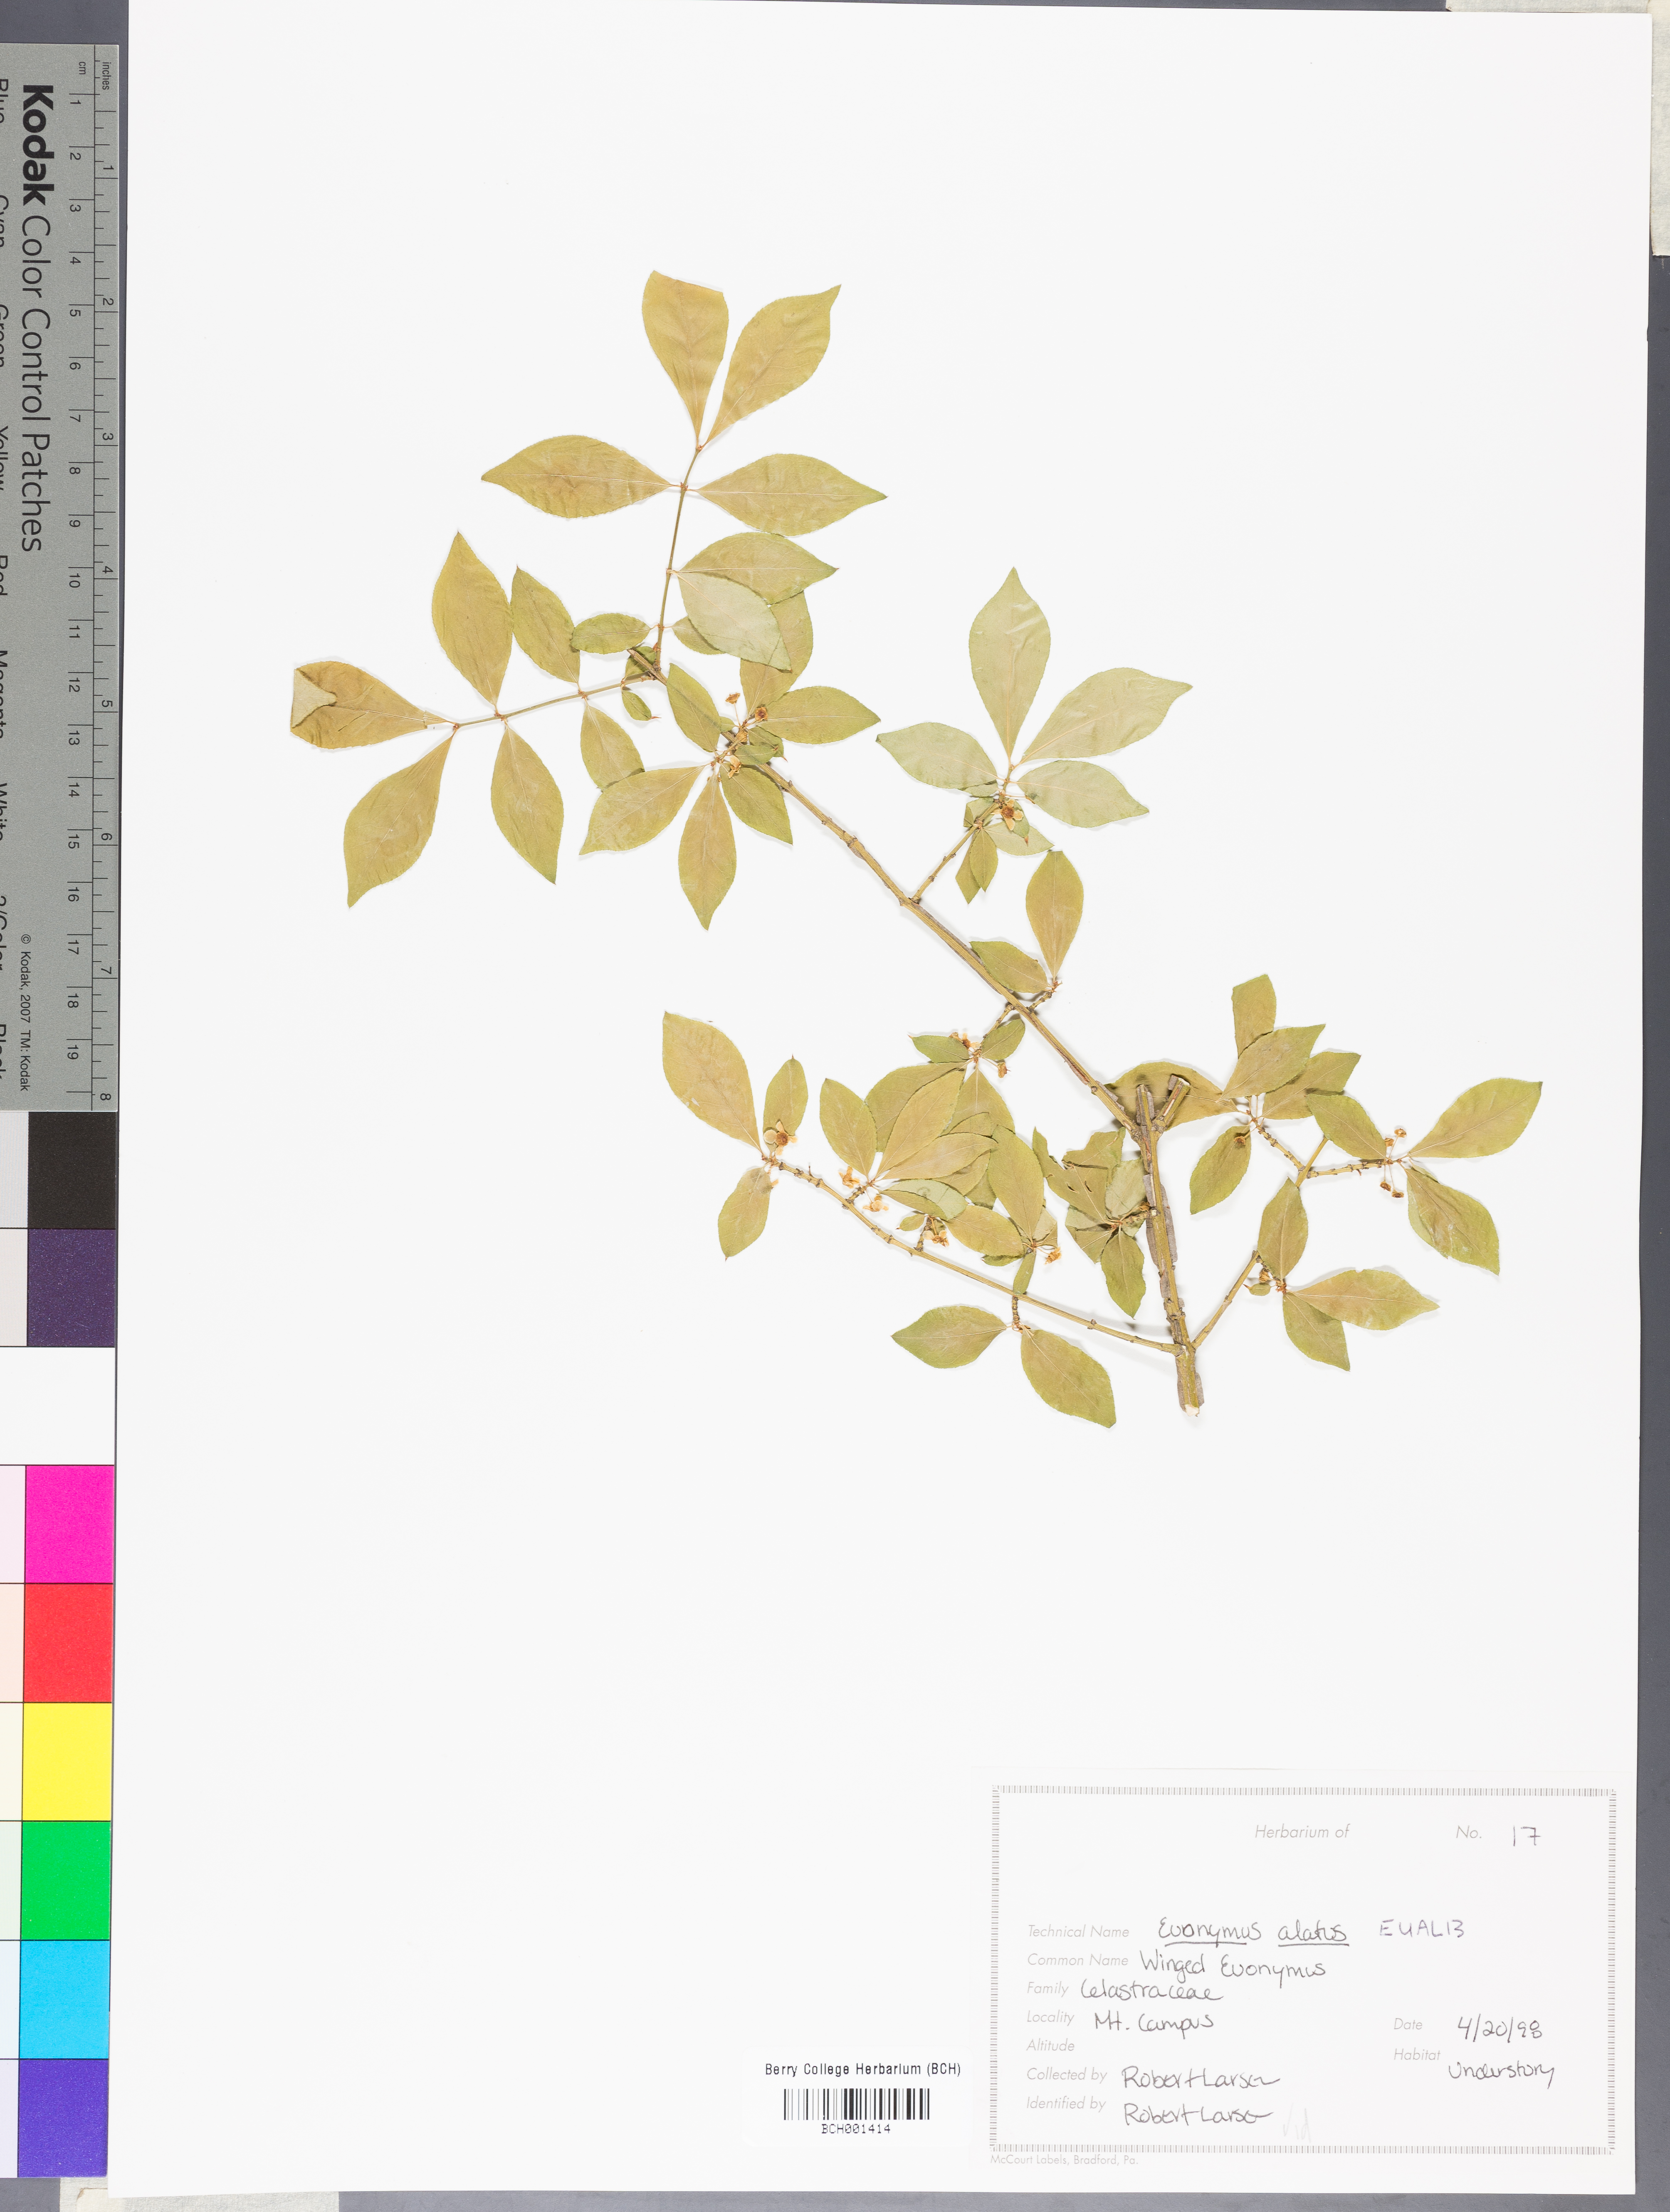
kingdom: Plantae
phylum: Tracheophyta
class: Magnoliopsida
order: Celastrales
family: Celastraceae
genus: Euonymus
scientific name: Euonymus alatus
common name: Winged euonymus
